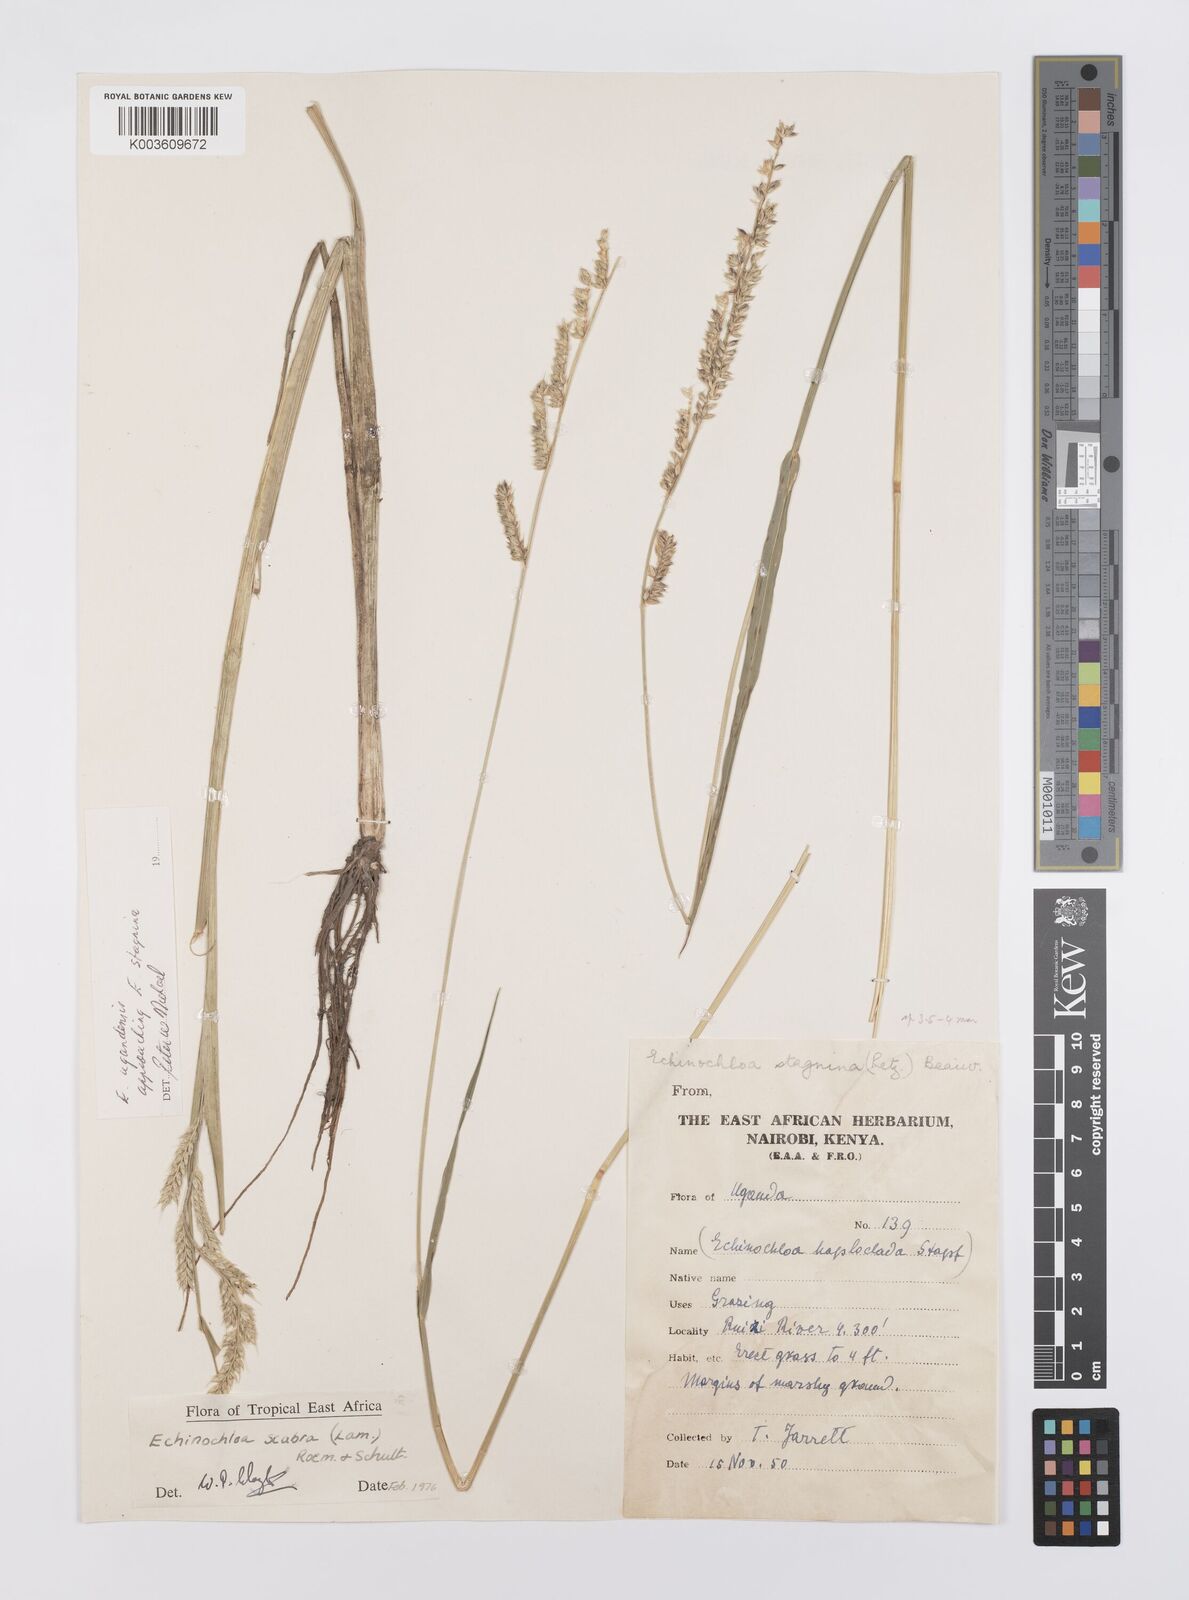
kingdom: Plantae
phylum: Tracheophyta
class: Liliopsida
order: Poales
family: Poaceae
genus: Echinochloa
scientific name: Echinochloa stagnina
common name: Burgu grass
